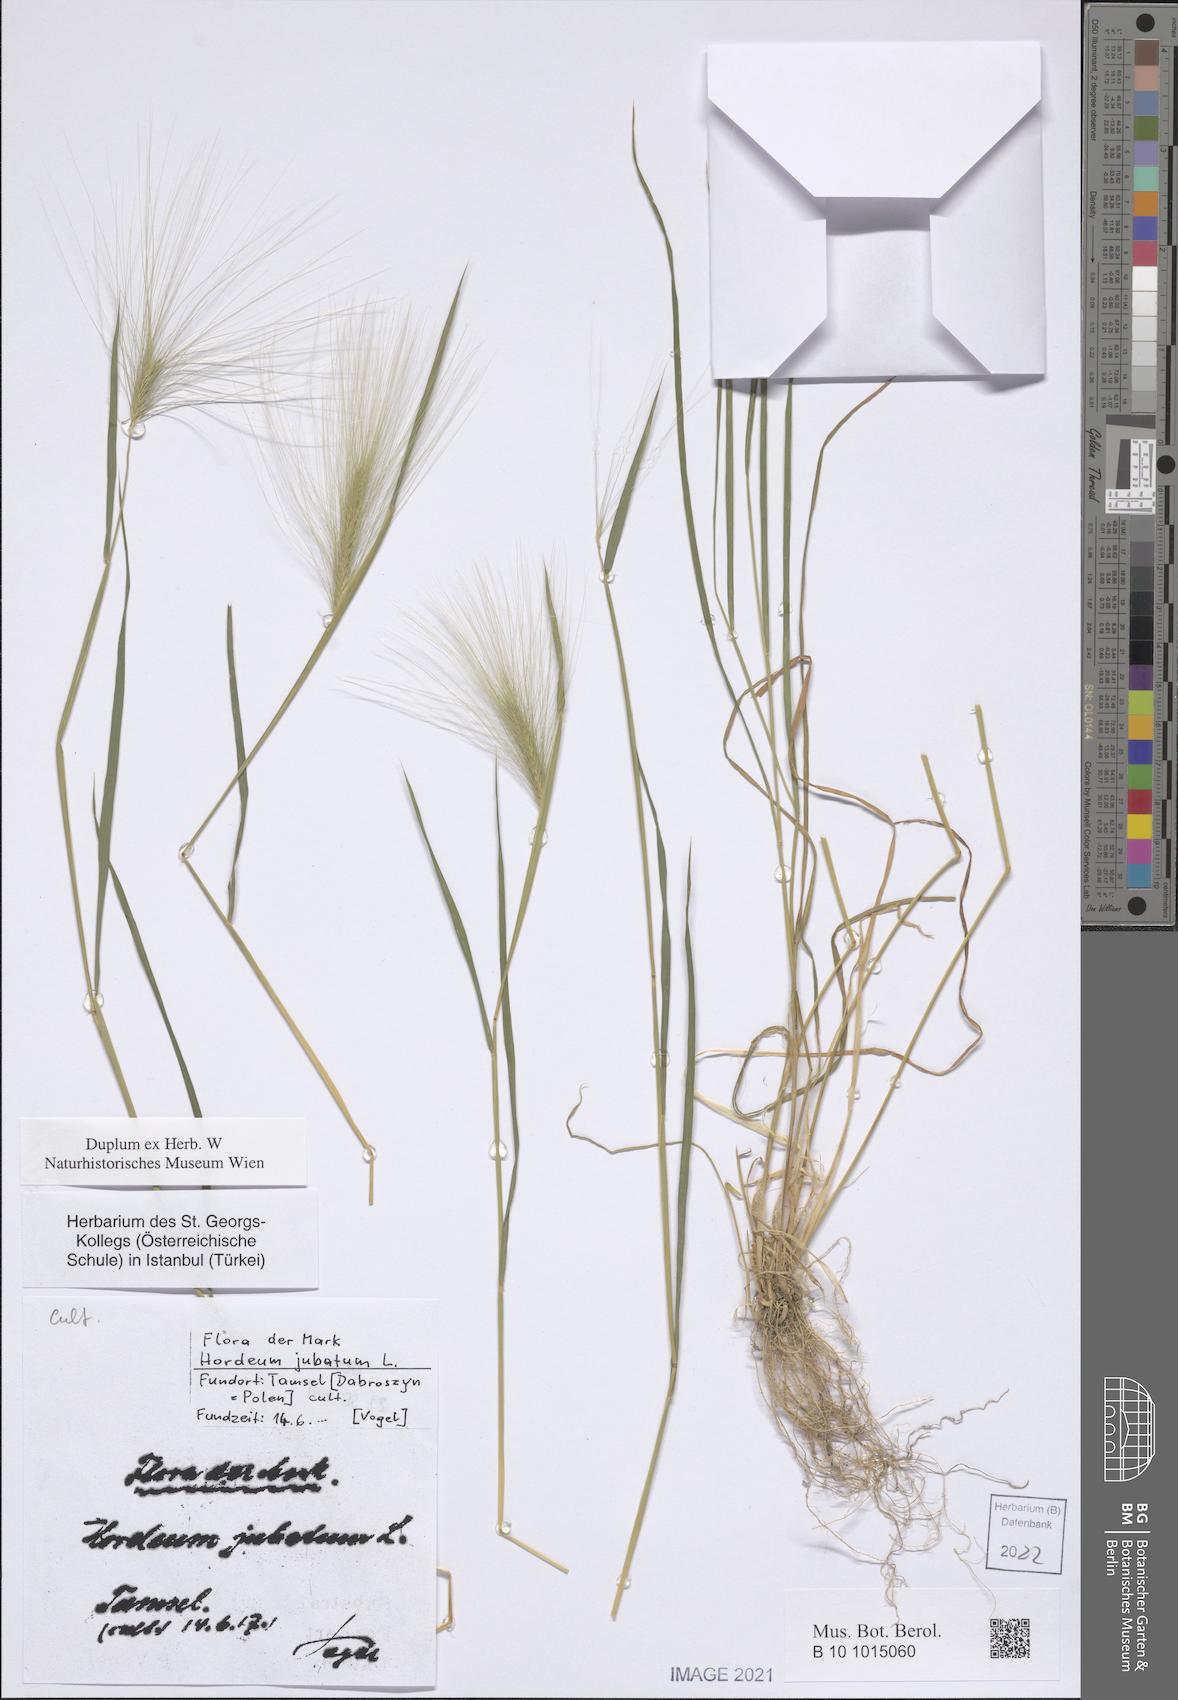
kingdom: Plantae
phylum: Tracheophyta
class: Liliopsida
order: Poales
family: Poaceae
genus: Hordeum
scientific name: Hordeum jubatum
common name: Foxtail barley
